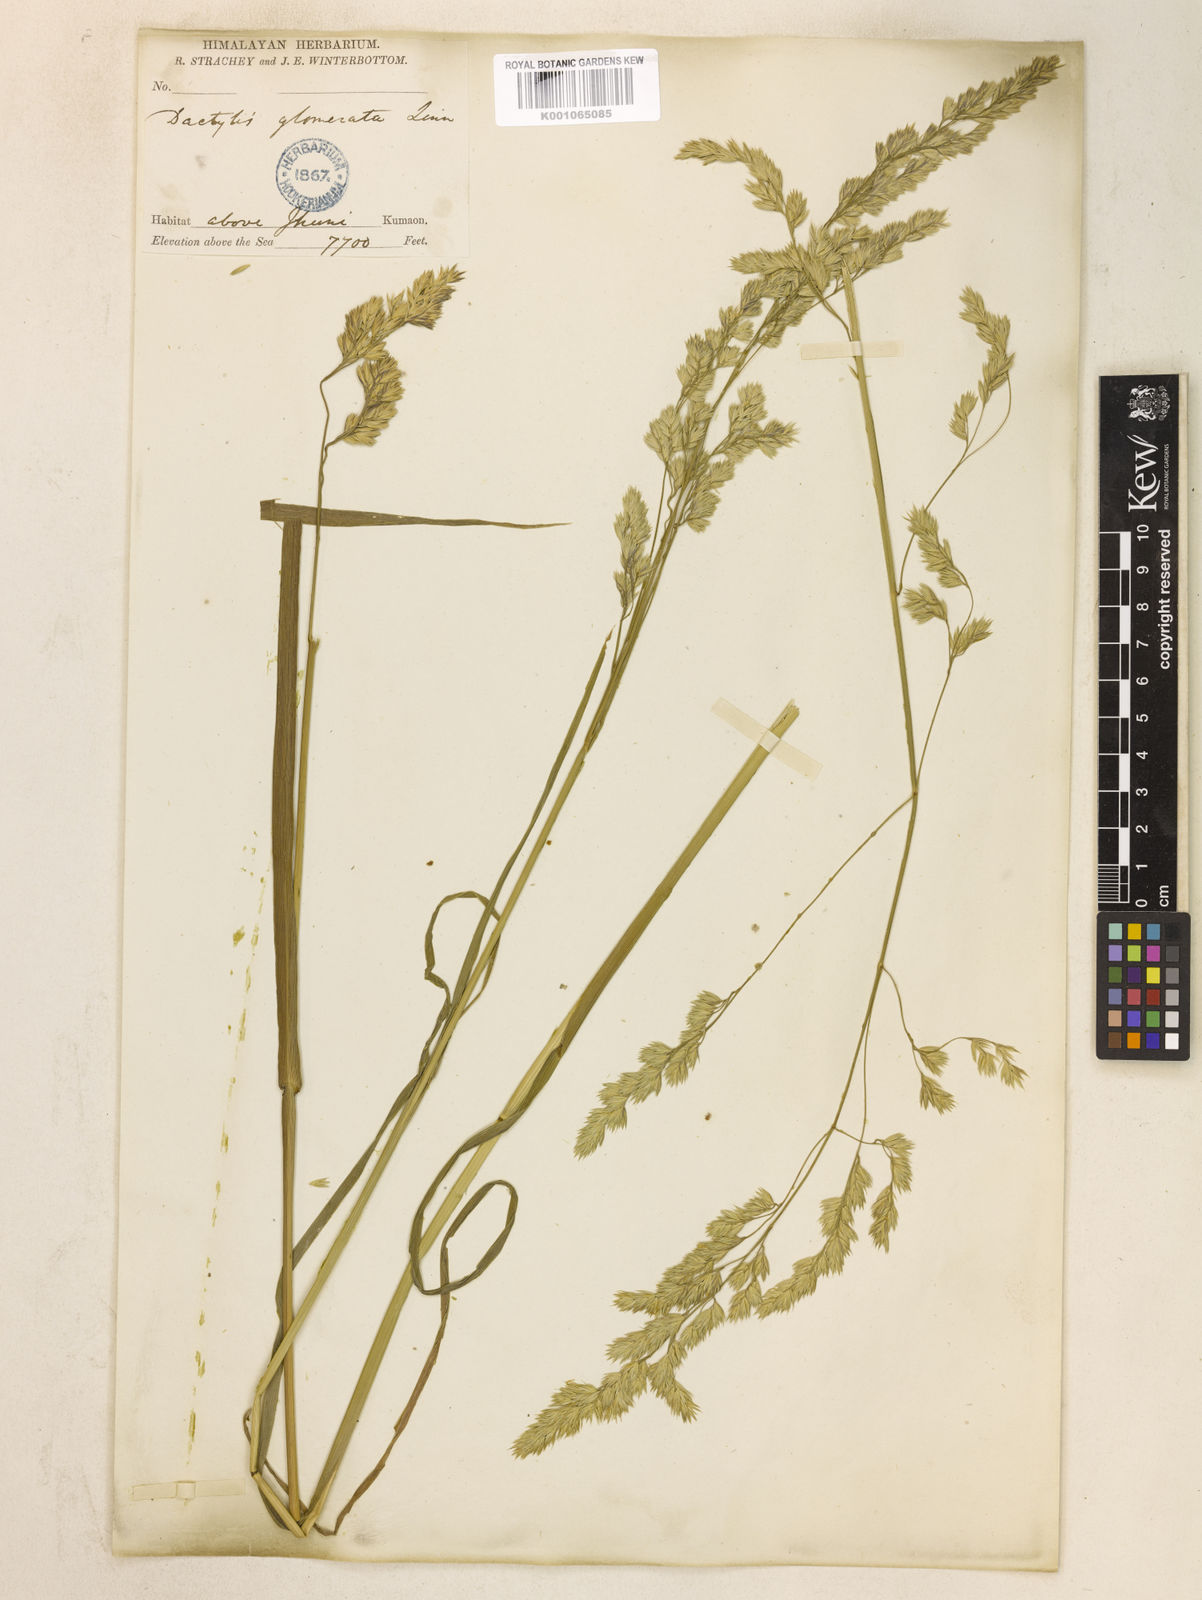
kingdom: Plantae
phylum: Tracheophyta
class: Liliopsida
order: Poales
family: Poaceae
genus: Dactylis
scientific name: Dactylis glomerata
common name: Orchardgrass
